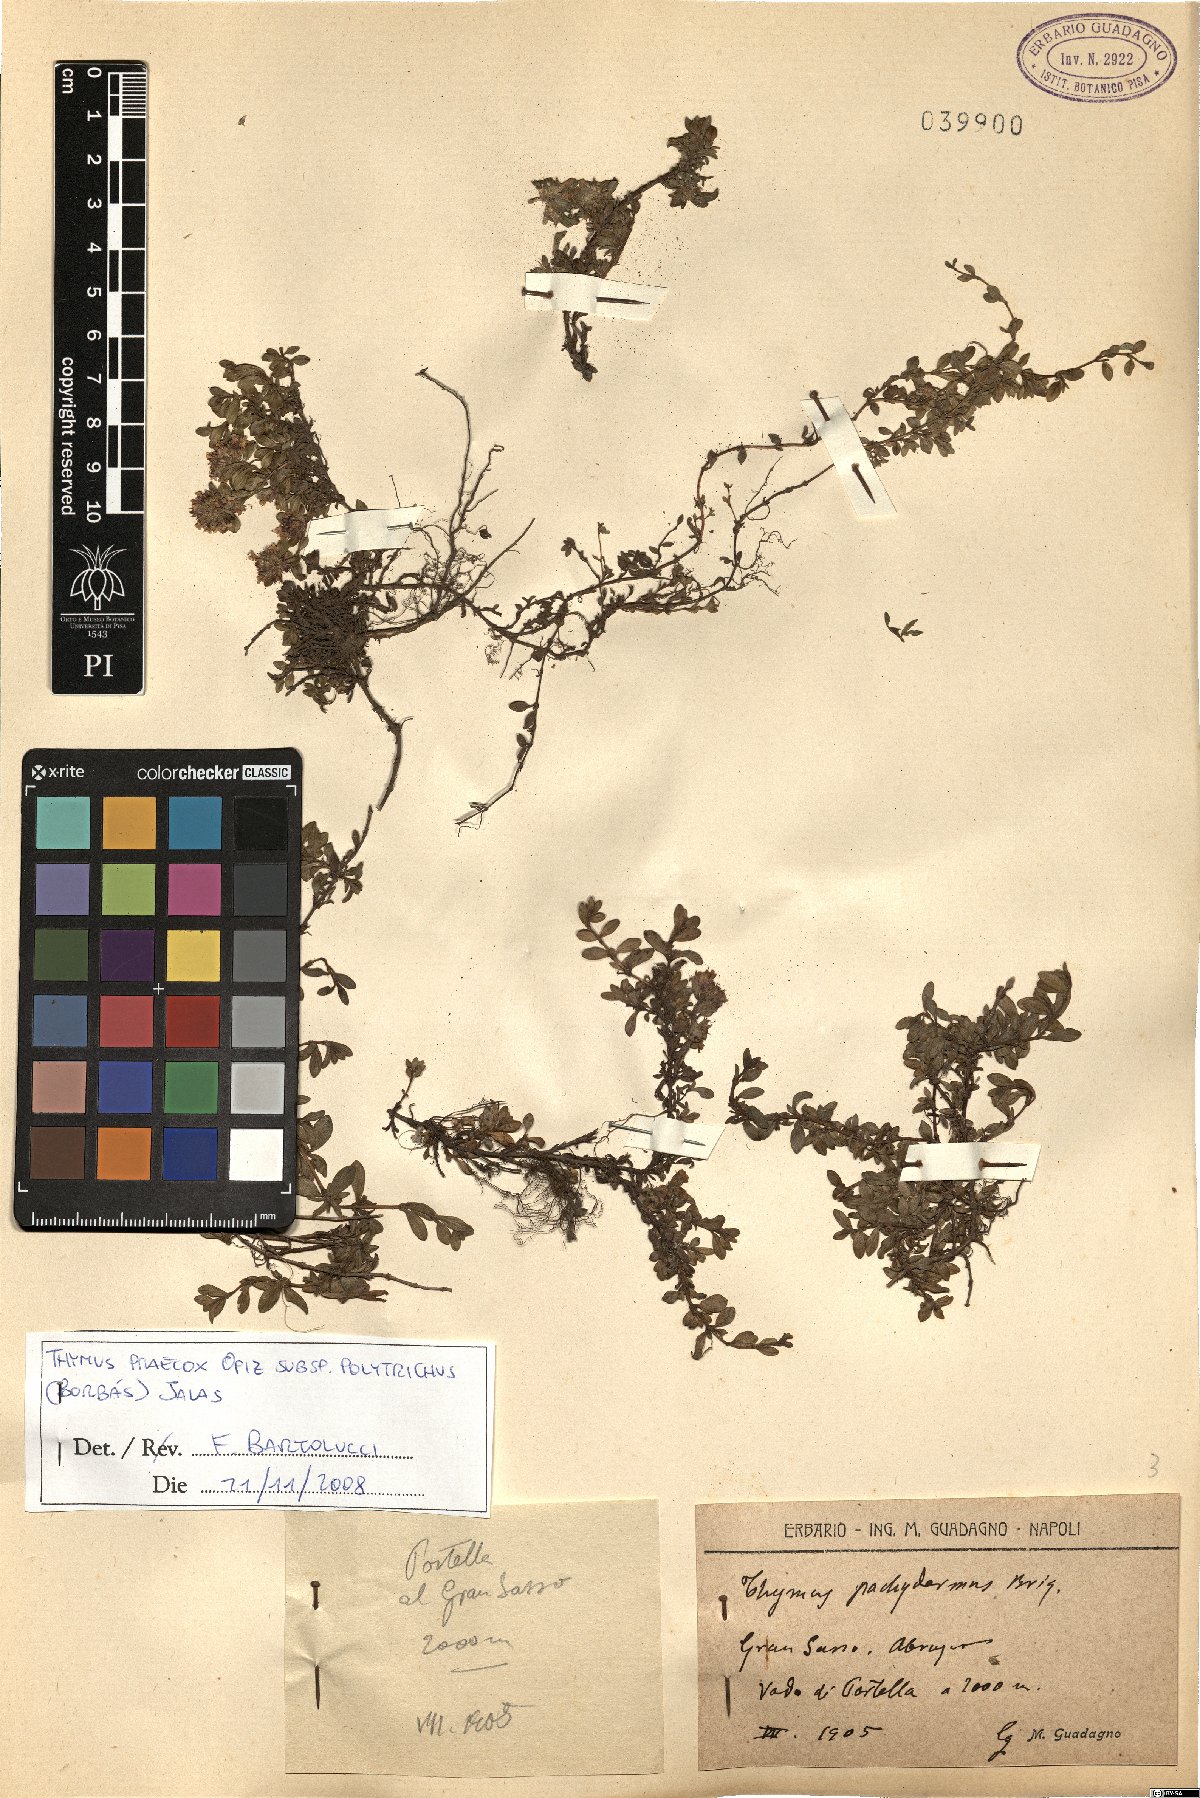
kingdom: Plantae
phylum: Tracheophyta
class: Magnoliopsida
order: Lamiales
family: Lamiaceae
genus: Thymus
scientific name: Thymus praecox
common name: Wild thyme
